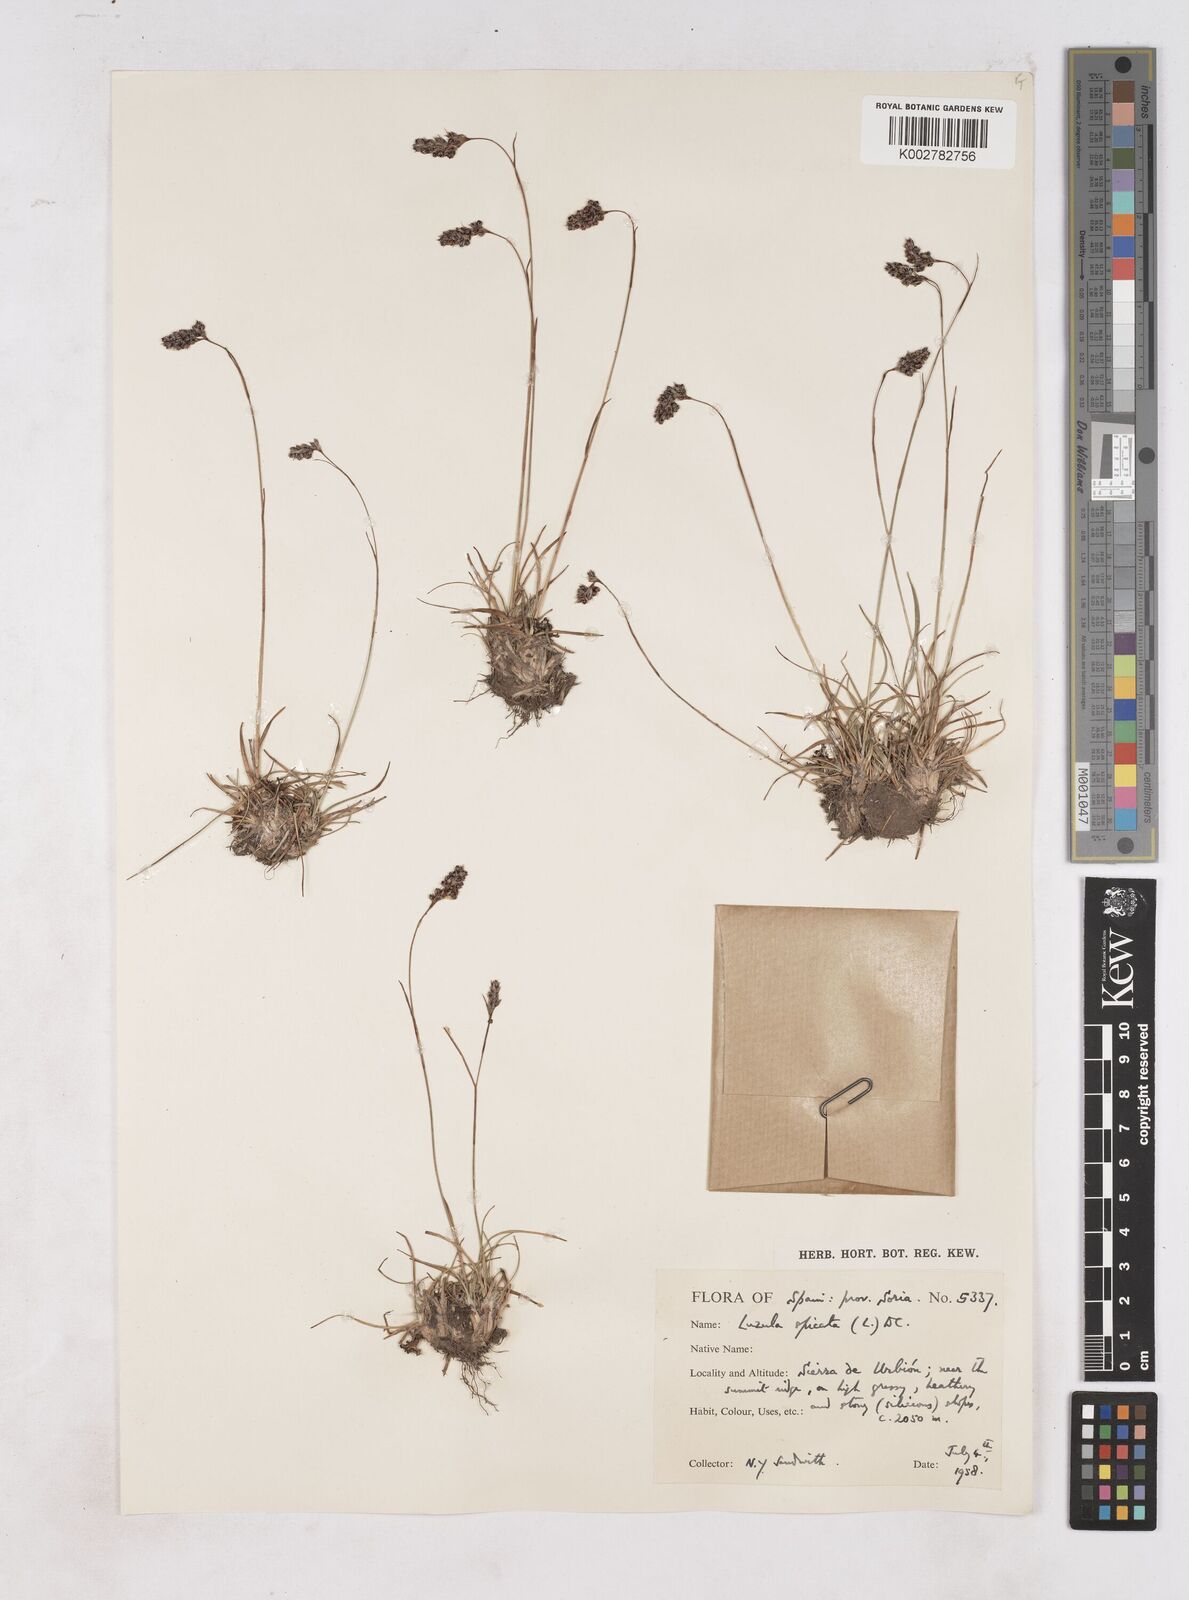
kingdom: Plantae
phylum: Tracheophyta
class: Liliopsida
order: Poales
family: Juncaceae
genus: Luzula
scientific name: Luzula spicata
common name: Spiked wood-rush
